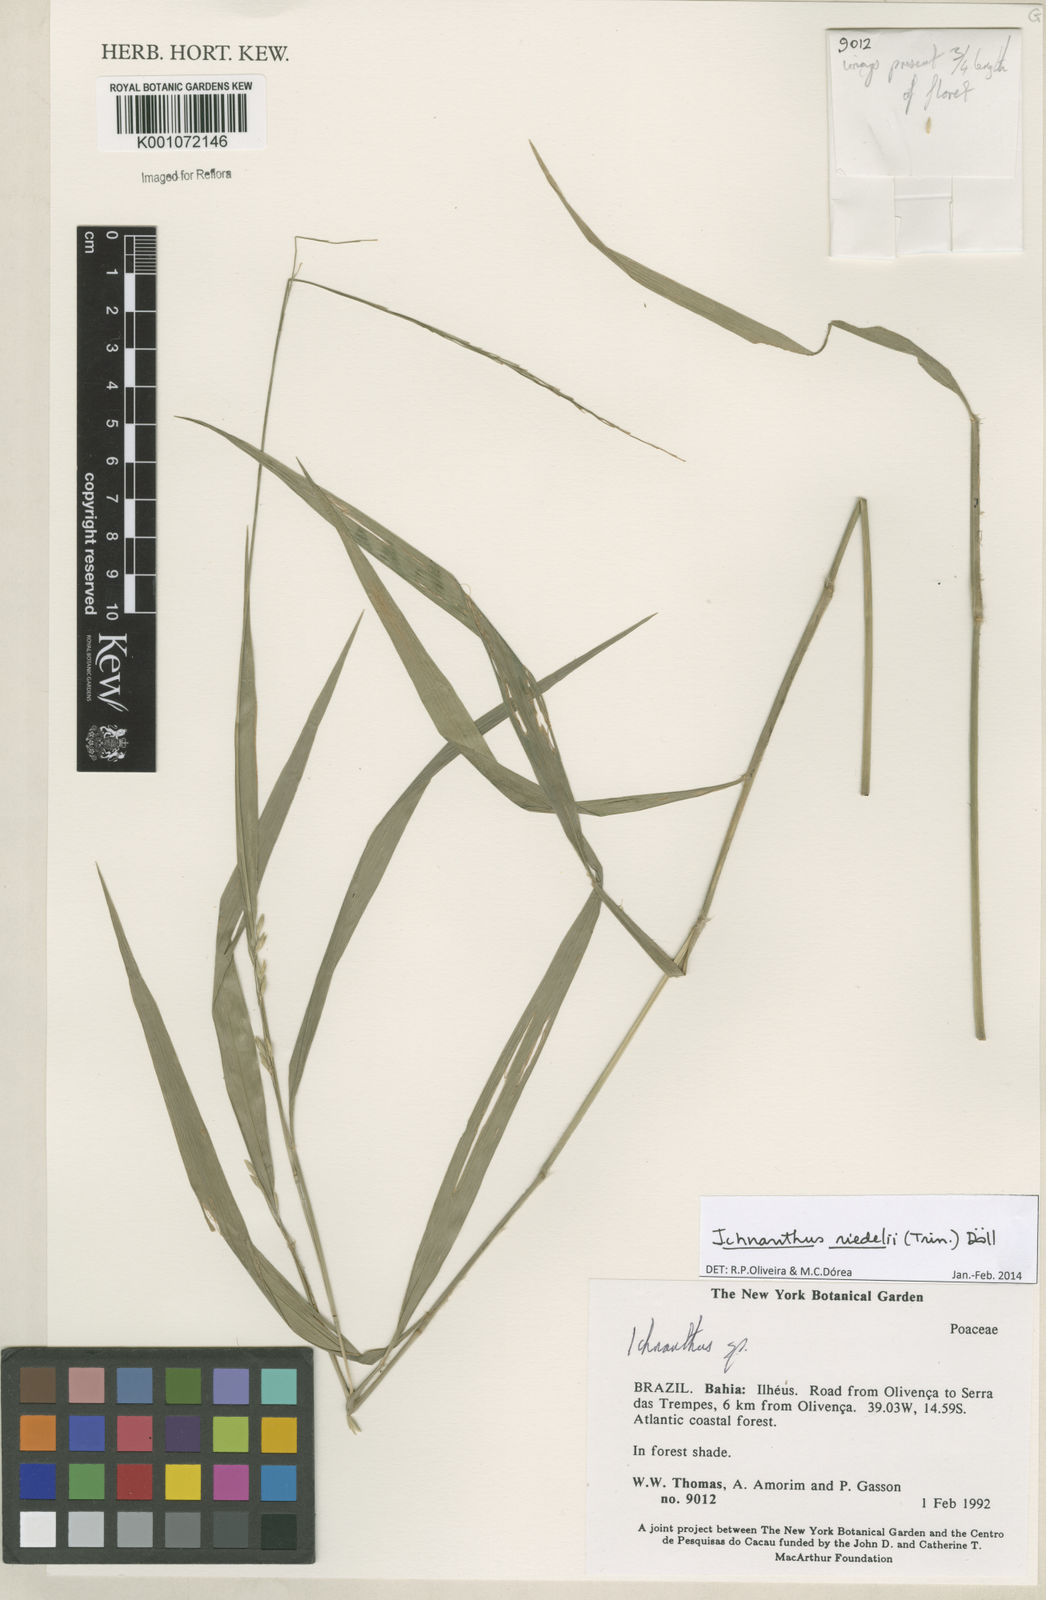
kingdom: Plantae
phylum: Tracheophyta
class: Liliopsida
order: Poales
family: Poaceae
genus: Ichnanthus
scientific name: Ichnanthus
